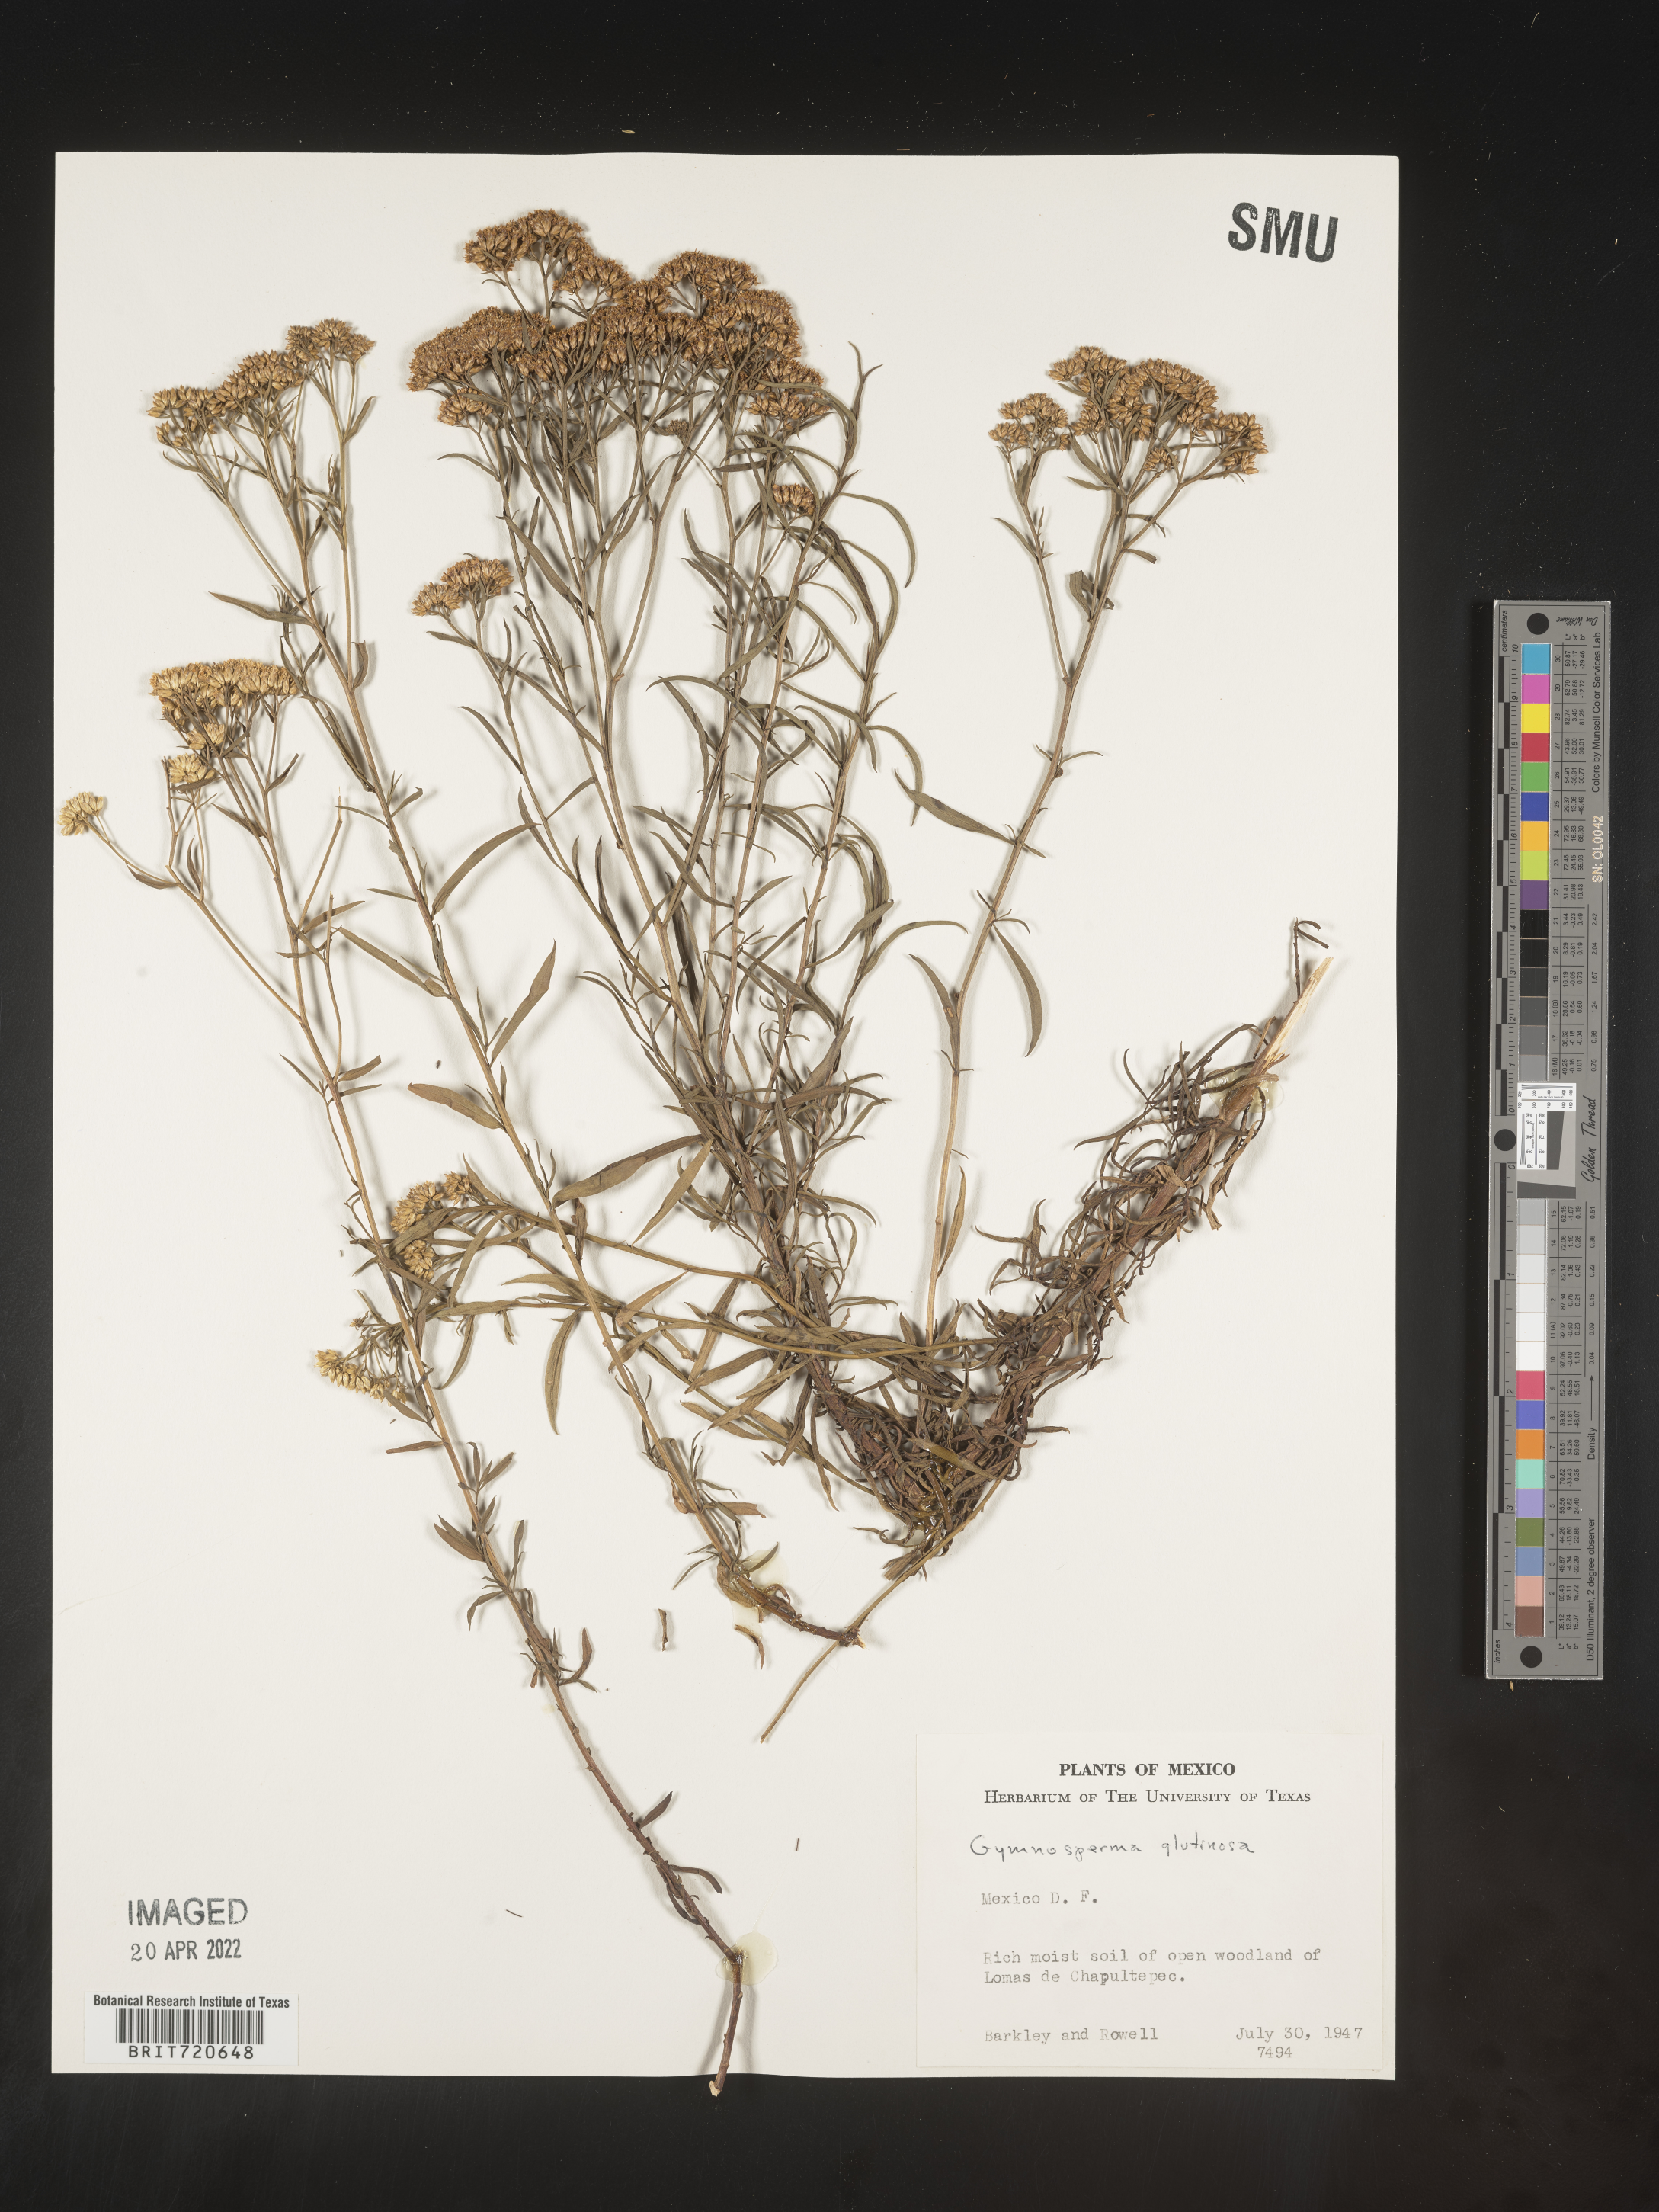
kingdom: Plantae
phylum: Tracheophyta
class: Magnoliopsida
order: Asterales
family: Asteraceae
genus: Gymnosperma
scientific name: Gymnosperma glutinosum
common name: Gumhead
